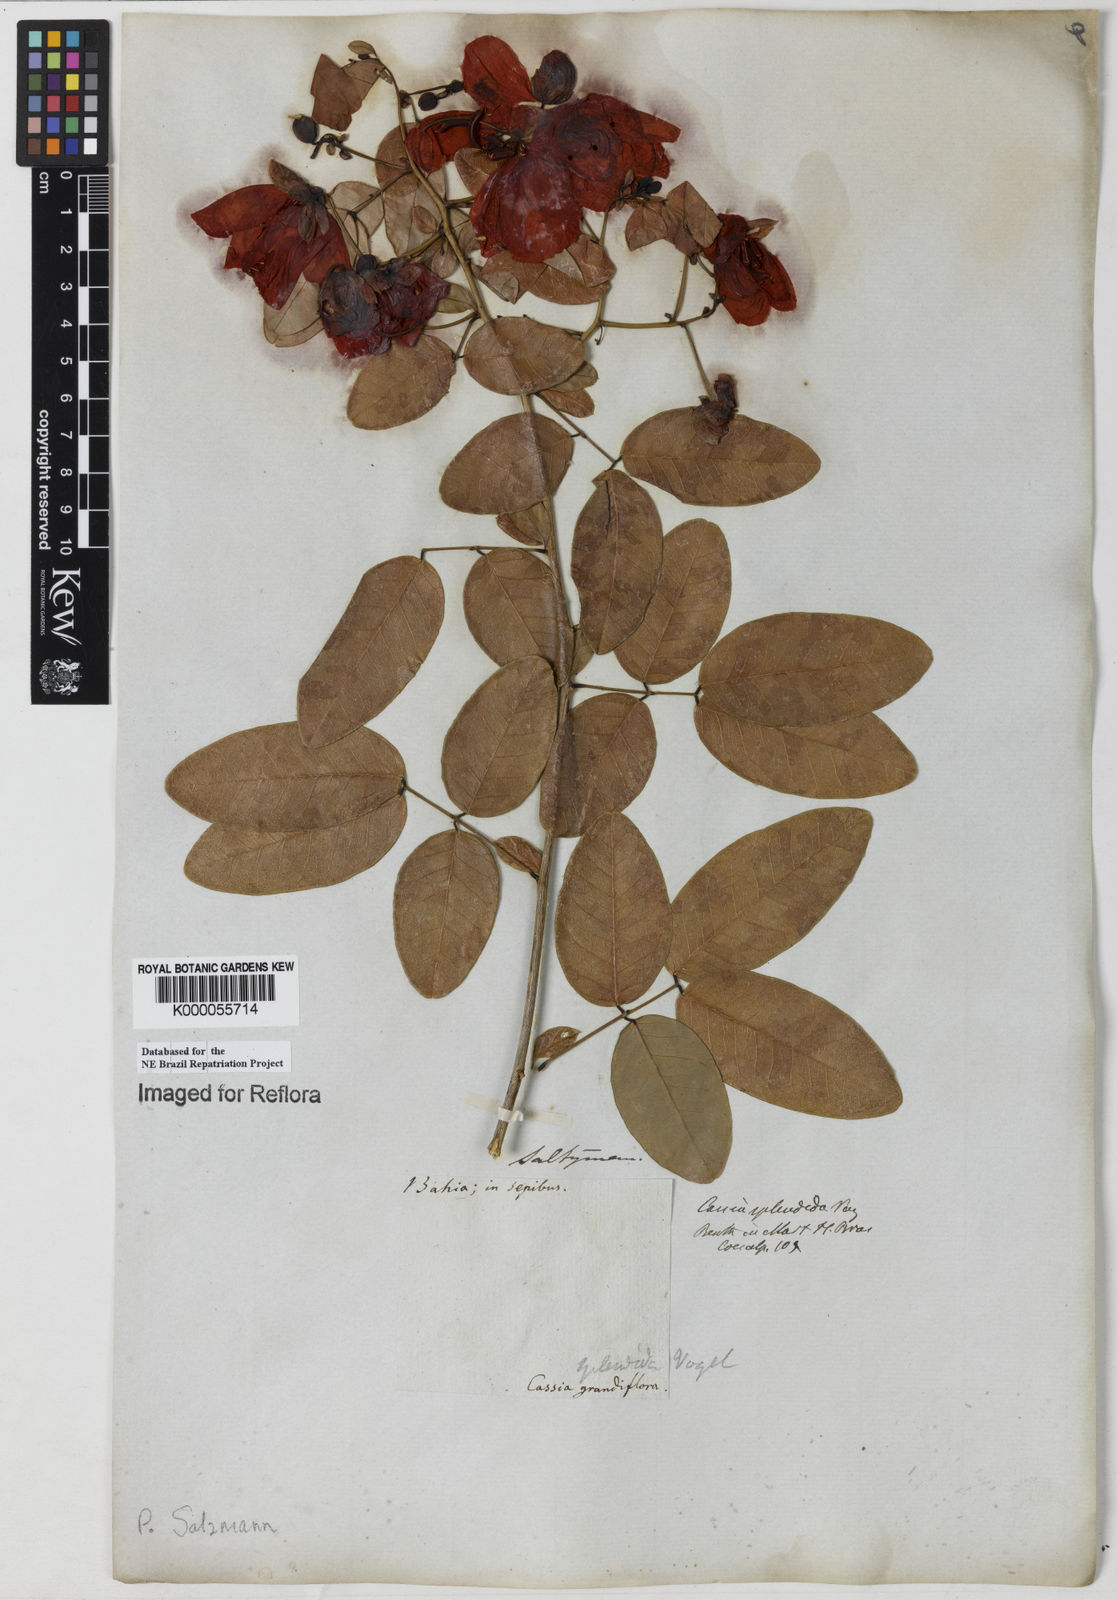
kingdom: Plantae
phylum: Tracheophyta
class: Magnoliopsida
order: Fabales
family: Fabaceae
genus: Senna
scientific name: Senna splendida
